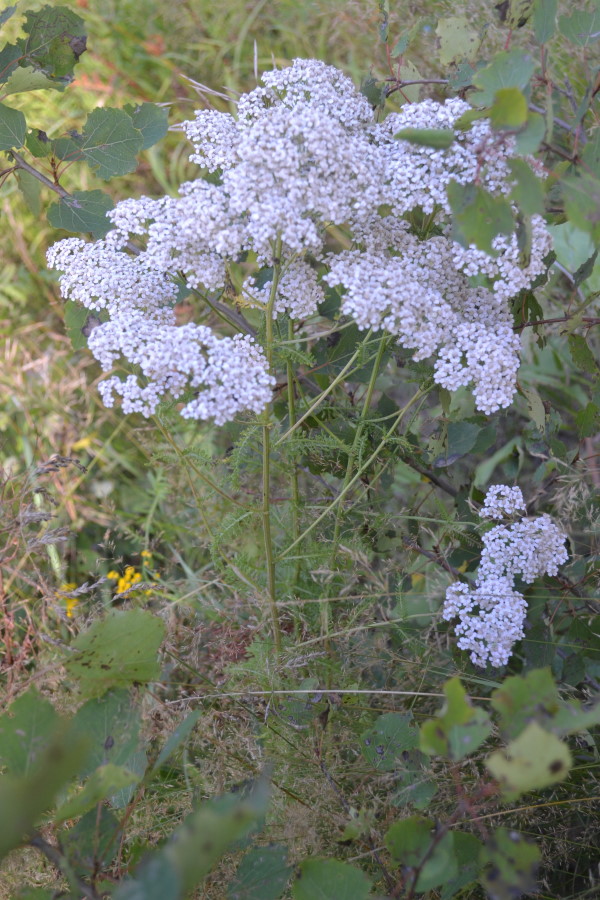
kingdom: Plantae
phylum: Tracheophyta
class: Magnoliopsida
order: Asterales
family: Asteraceae
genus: Achillea
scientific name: Achillea millefolium
